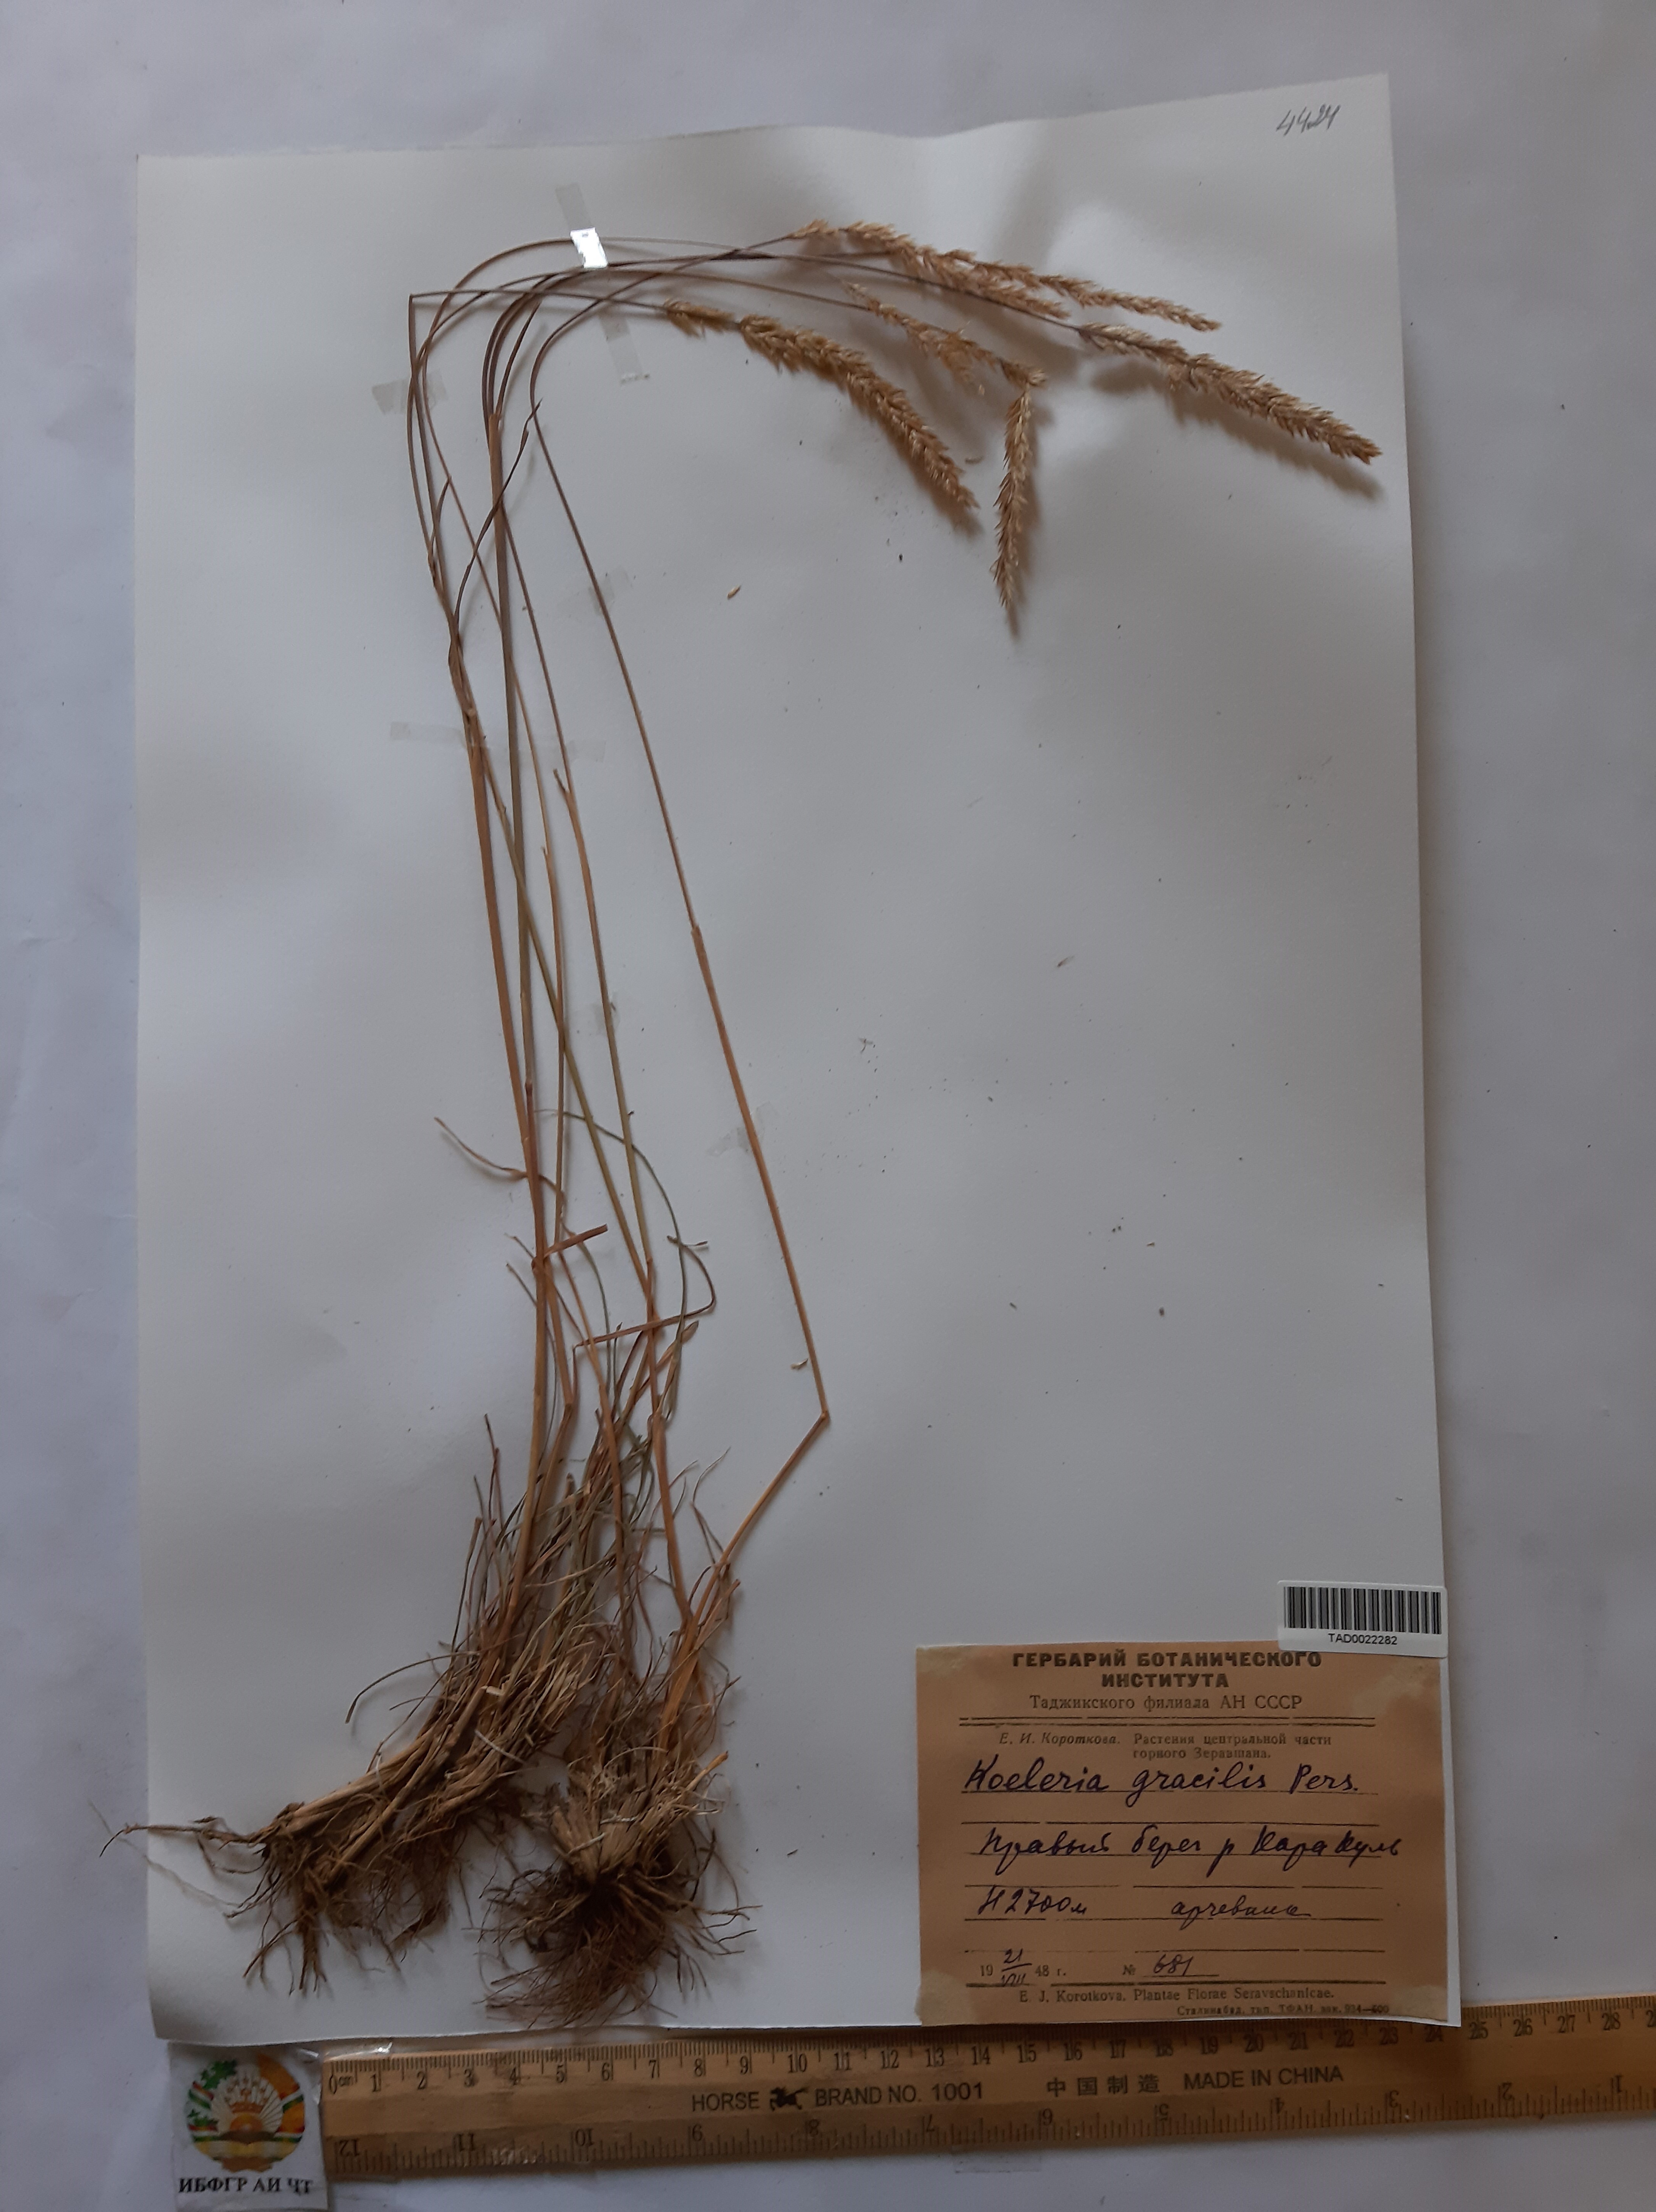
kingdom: Plantae
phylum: Tracheophyta
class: Liliopsida
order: Poales
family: Poaceae
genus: Koeleria
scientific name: Koeleria macrantha
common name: Crested hair-grass
